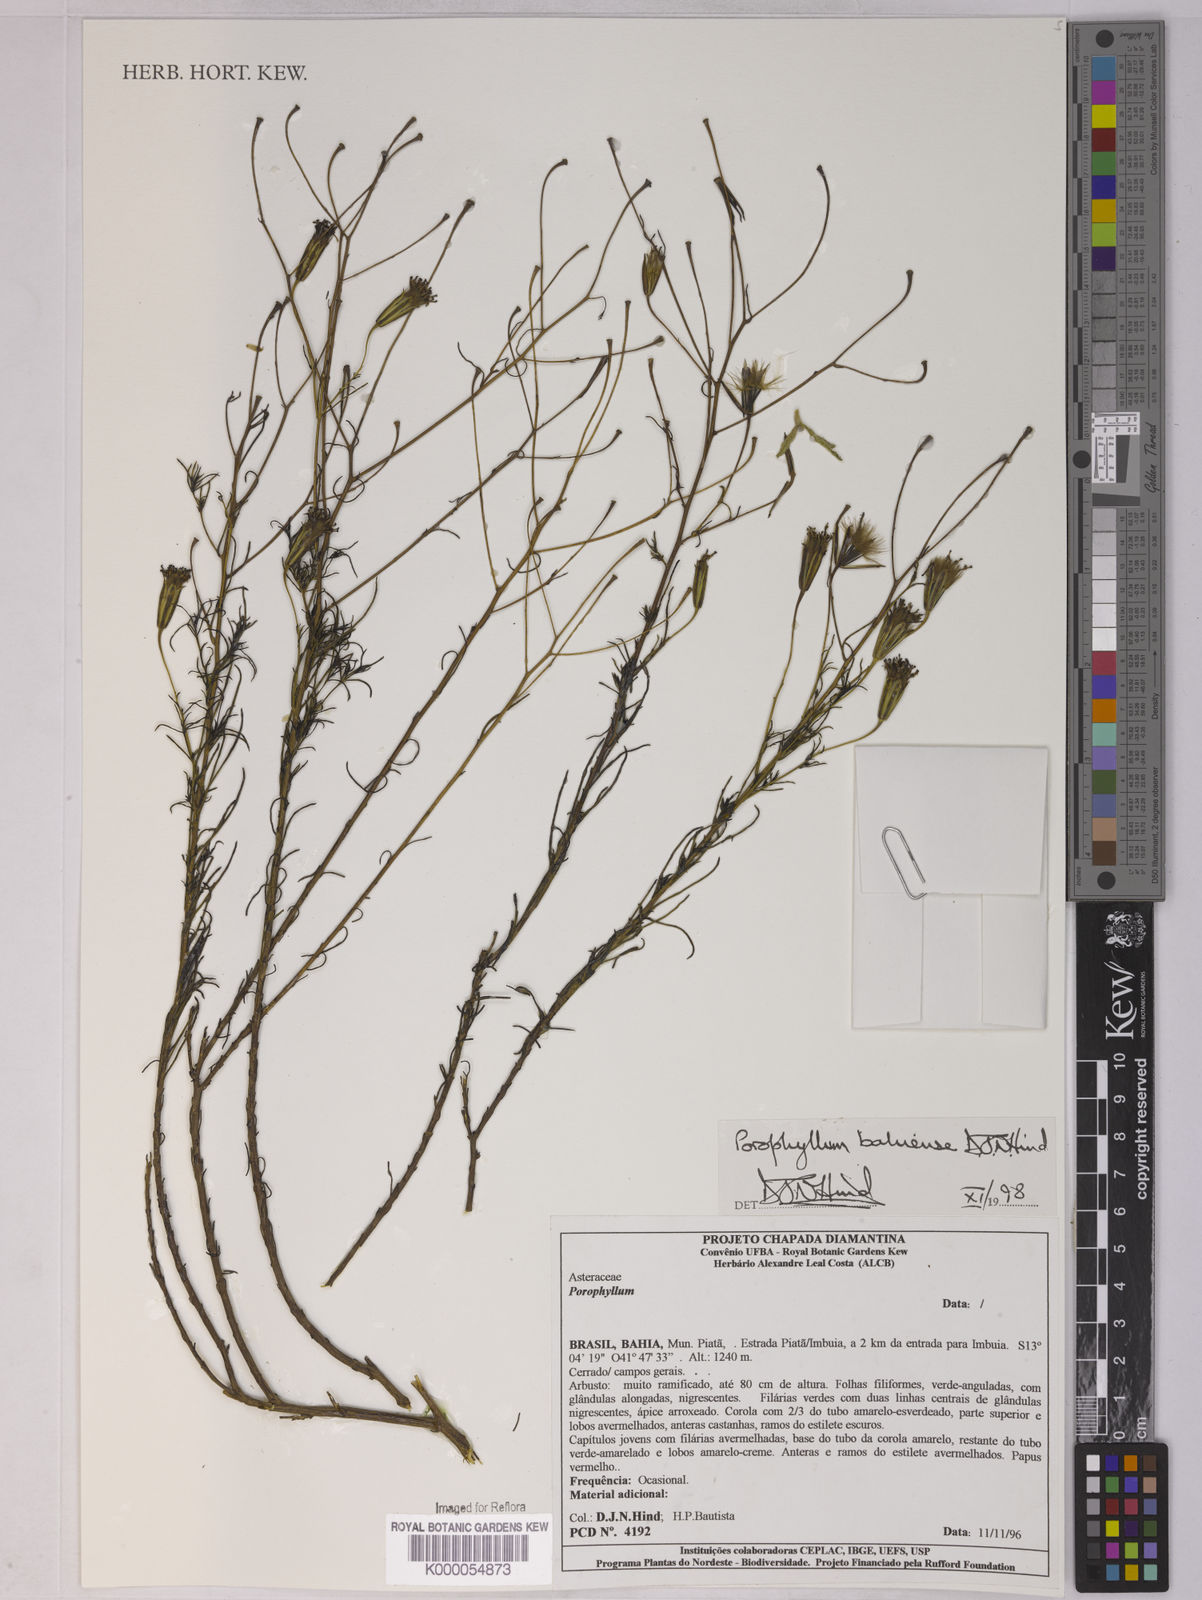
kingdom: Plantae
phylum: Tracheophyta
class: Magnoliopsida
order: Asterales
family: Asteraceae
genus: Porophyllum
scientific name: Porophyllum bahiense
